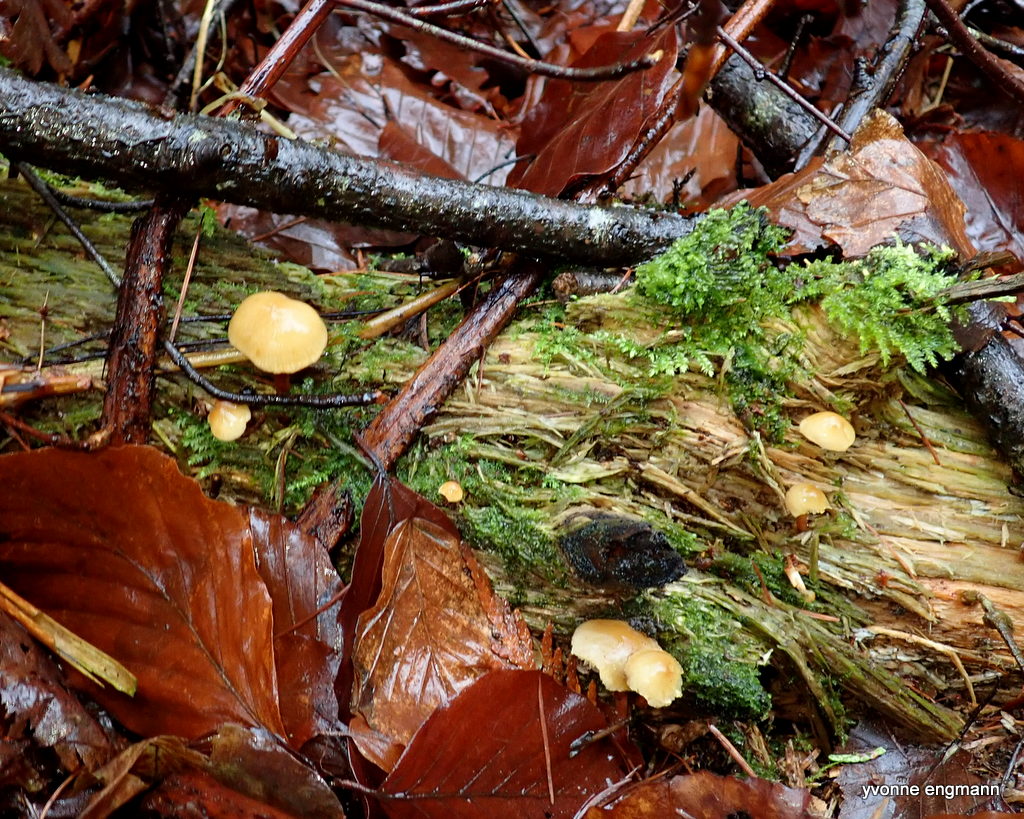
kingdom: Fungi
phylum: Basidiomycota
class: Agaricomycetes
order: Agaricales
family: Strophariaceae
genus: Hypholoma
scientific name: Hypholoma capnoides
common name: gran-svovlhat
